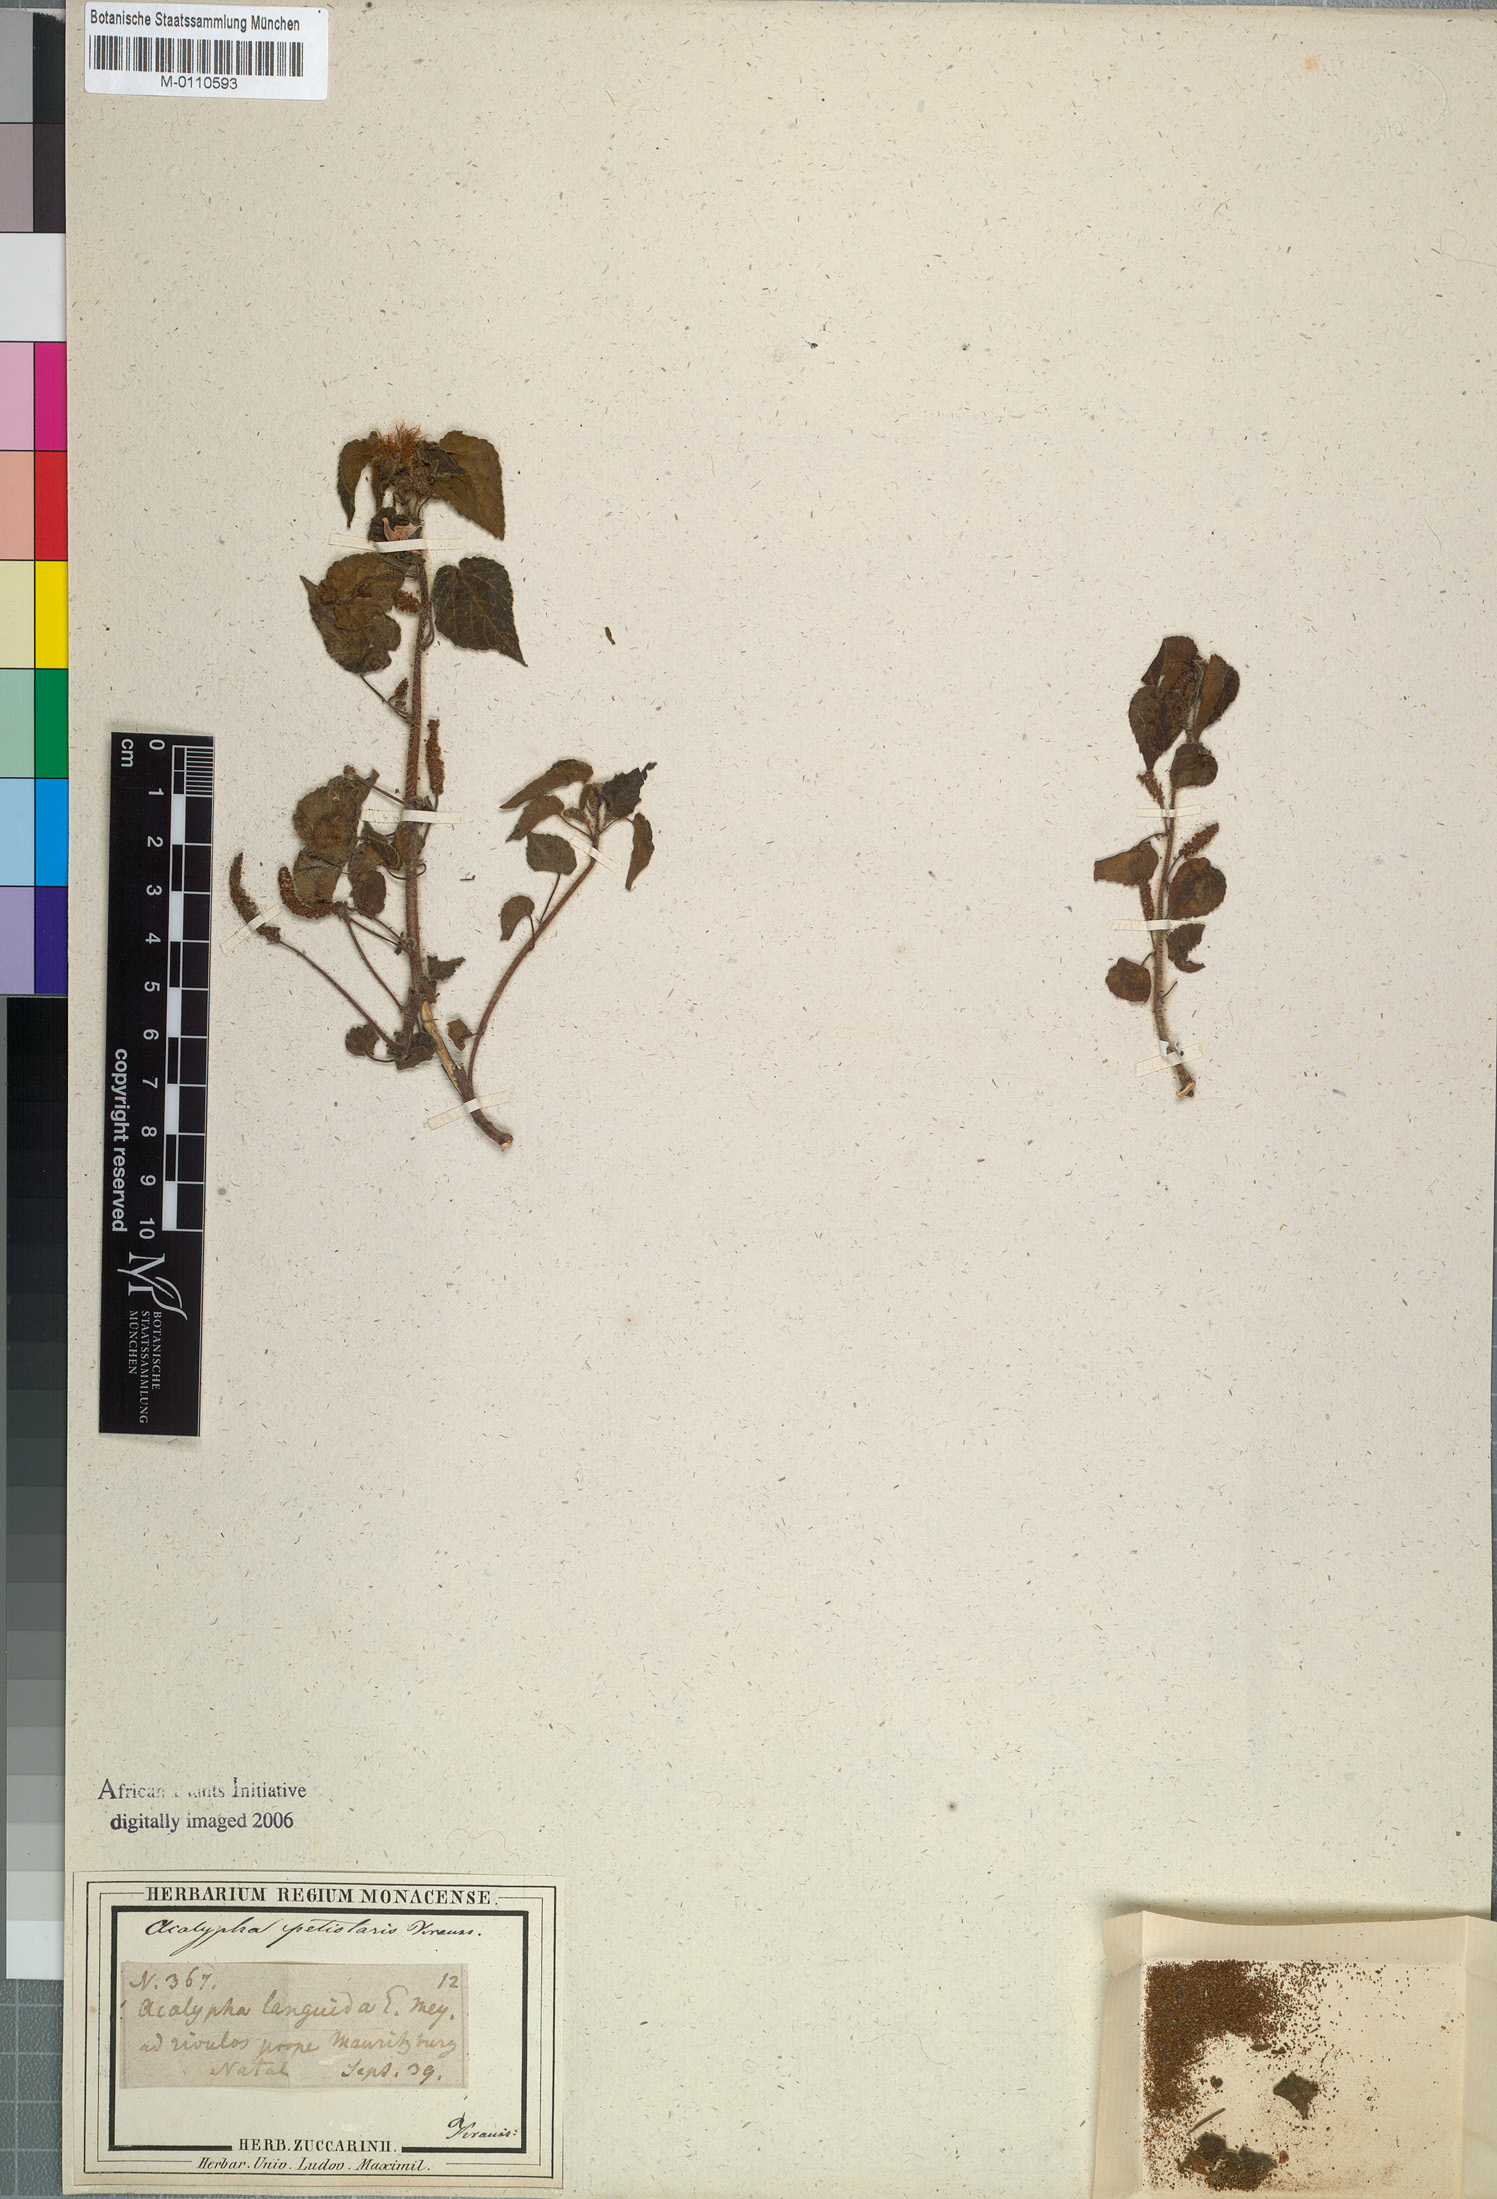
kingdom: Plantae
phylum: Tracheophyta
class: Magnoliopsida
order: Malpighiales
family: Euphorbiaceae
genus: Acalypha
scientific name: Acalypha petiolaris
